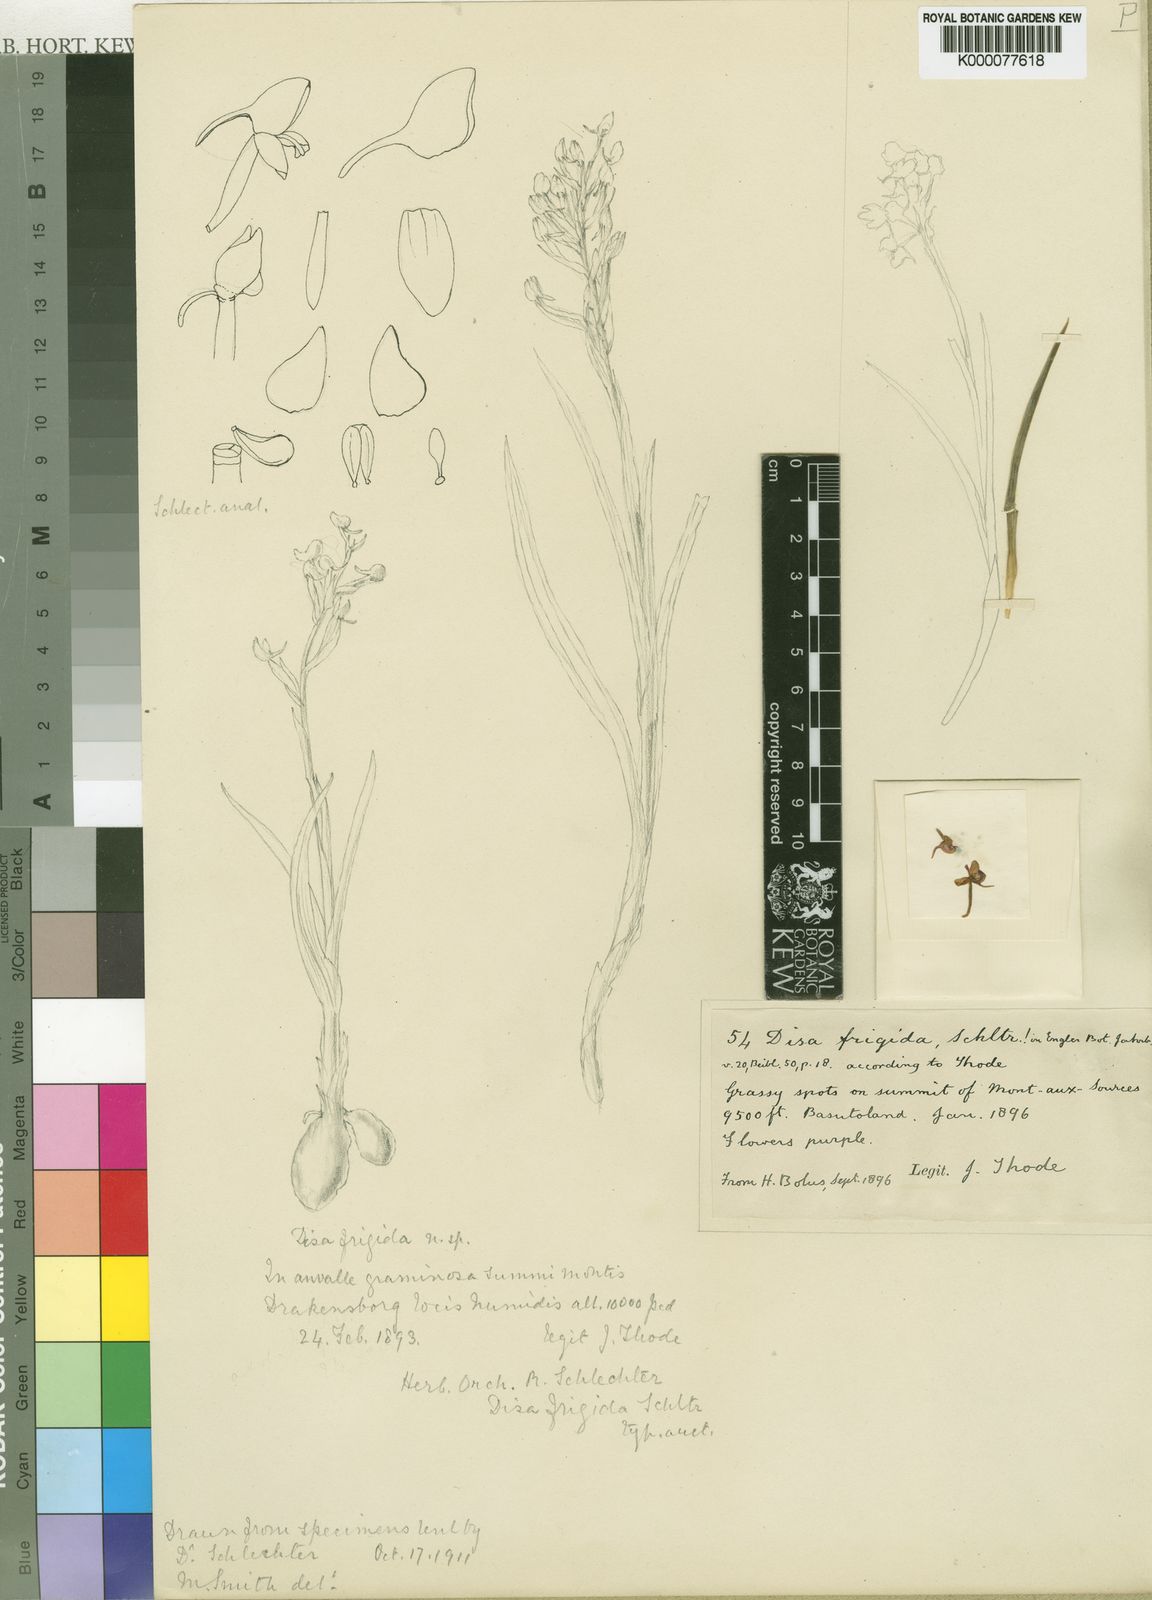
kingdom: Plantae
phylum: Tracheophyta
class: Liliopsida
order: Asparagales
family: Orchidaceae
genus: Disa
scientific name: Disa cephalotes
